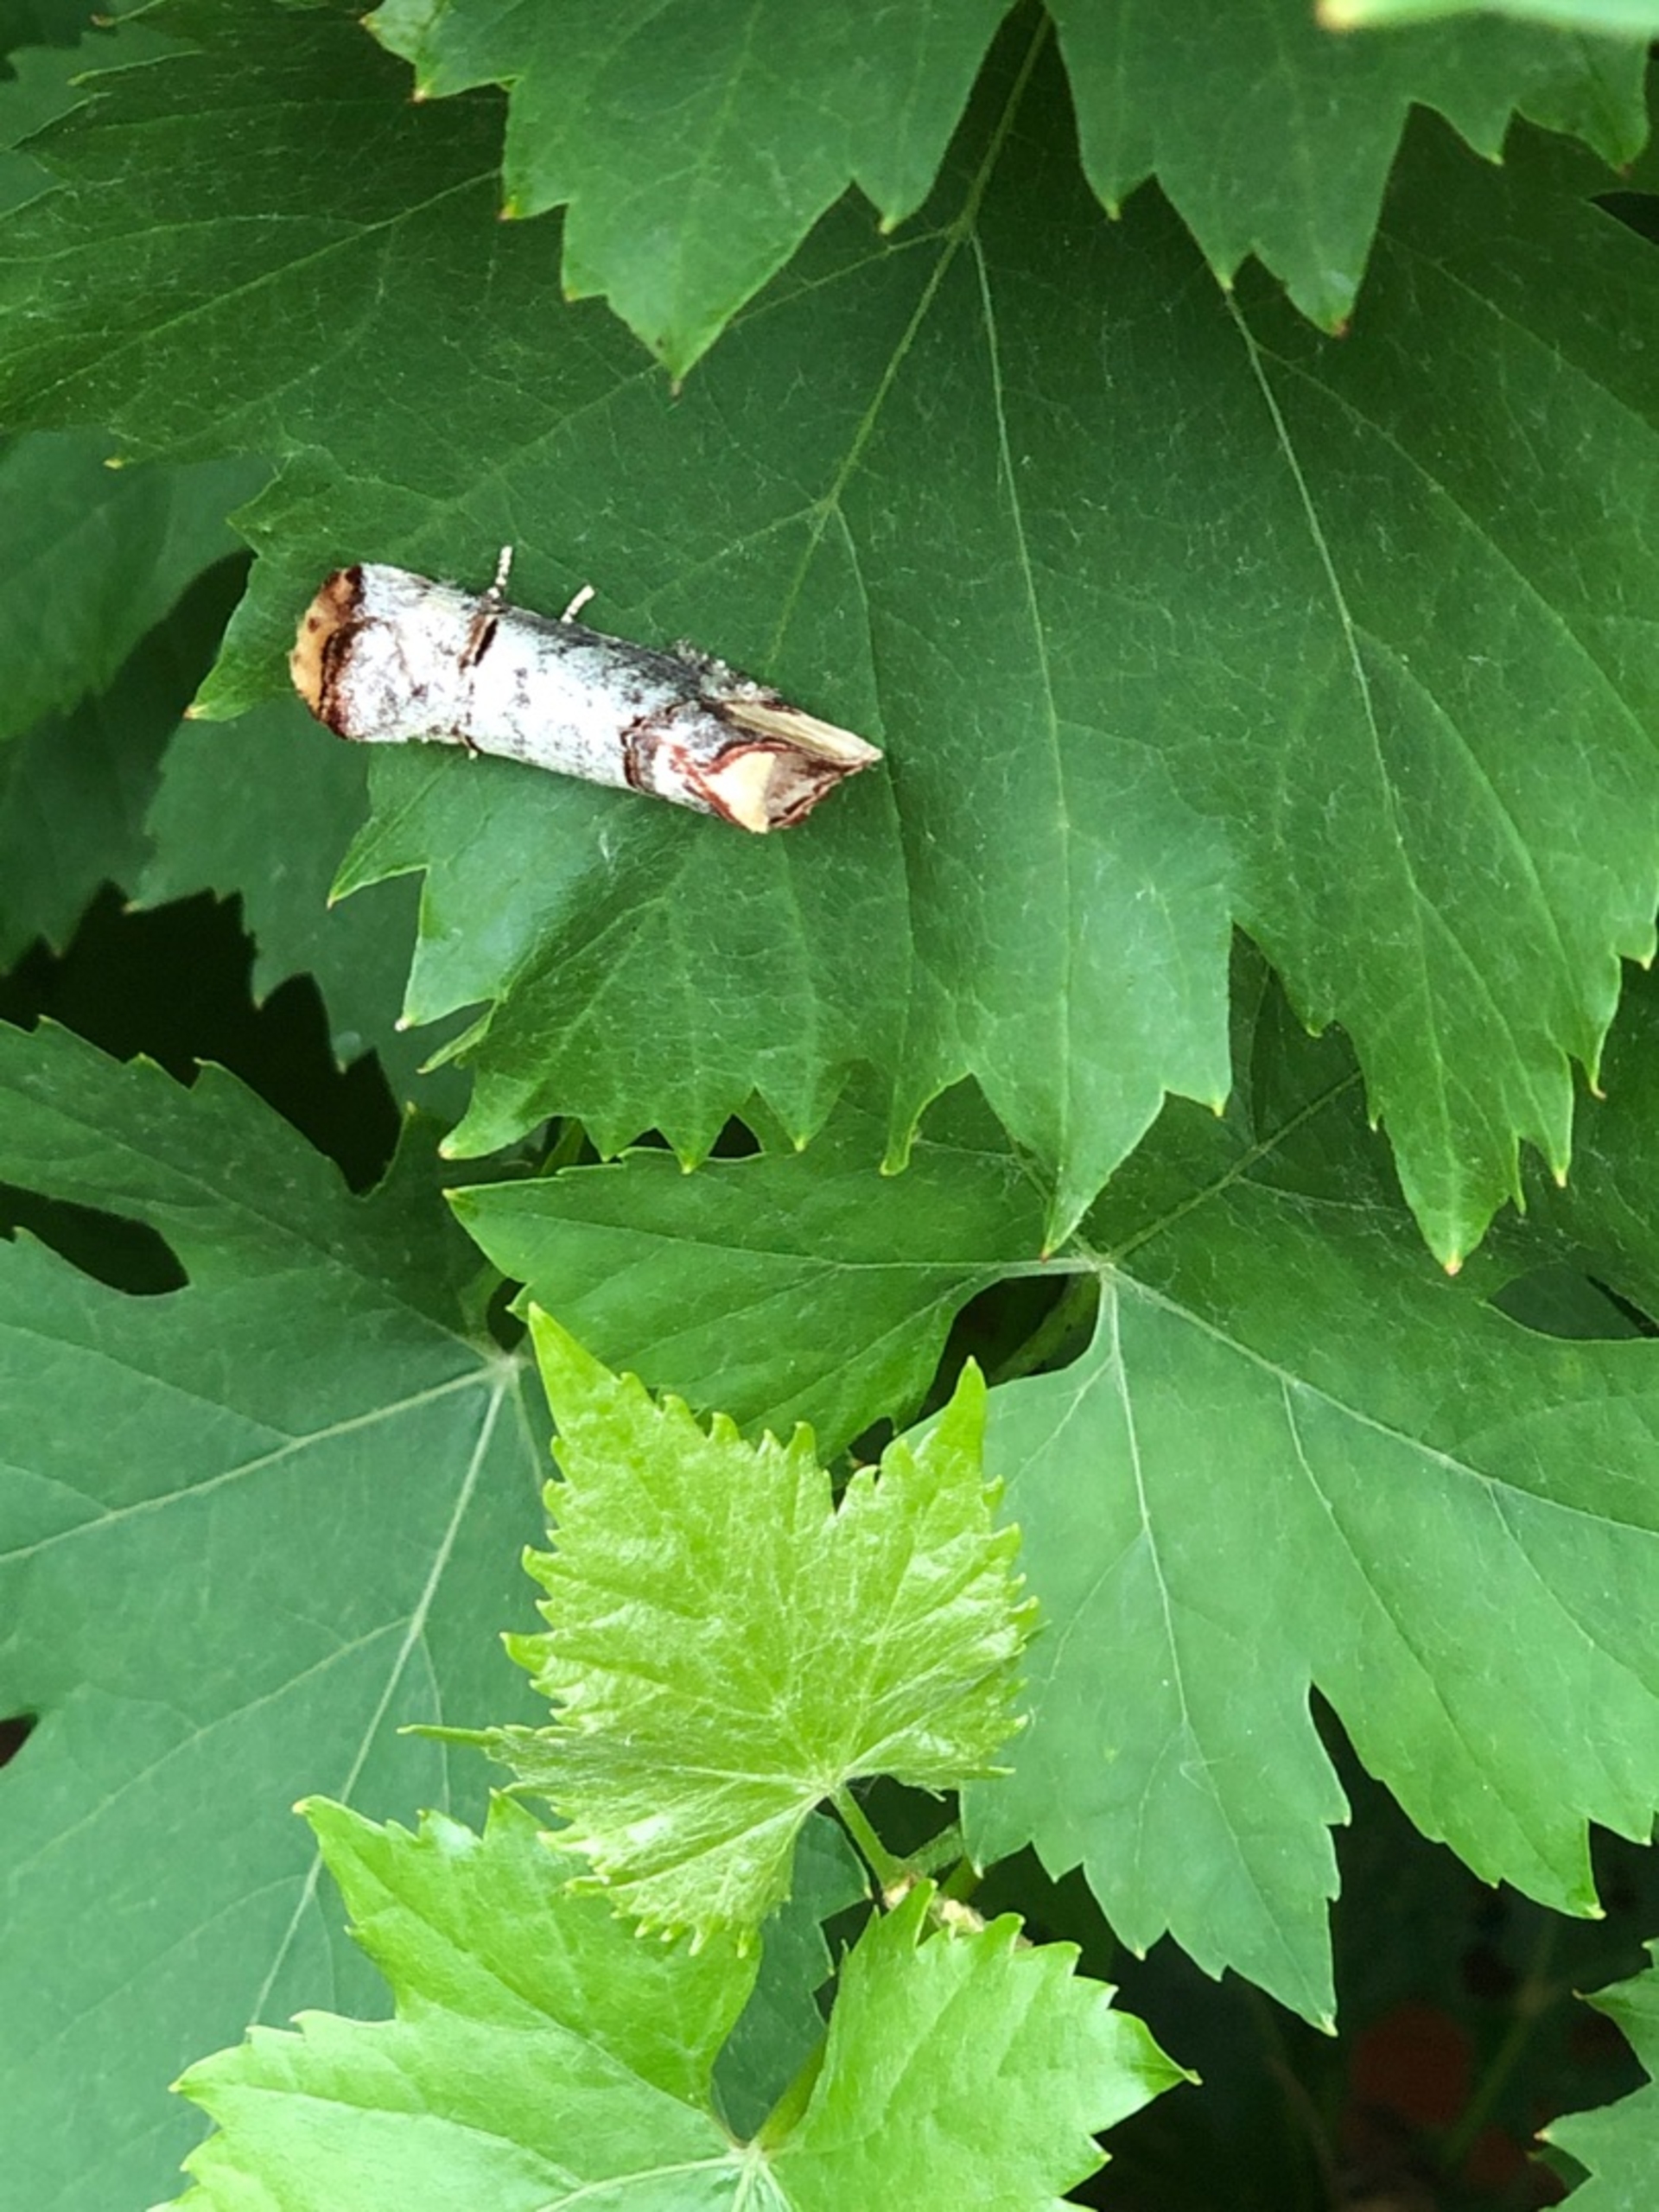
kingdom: Animalia
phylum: Arthropoda
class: Insecta
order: Lepidoptera
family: Notodontidae
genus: Phalera
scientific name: Phalera bucephala
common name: Måneplet
